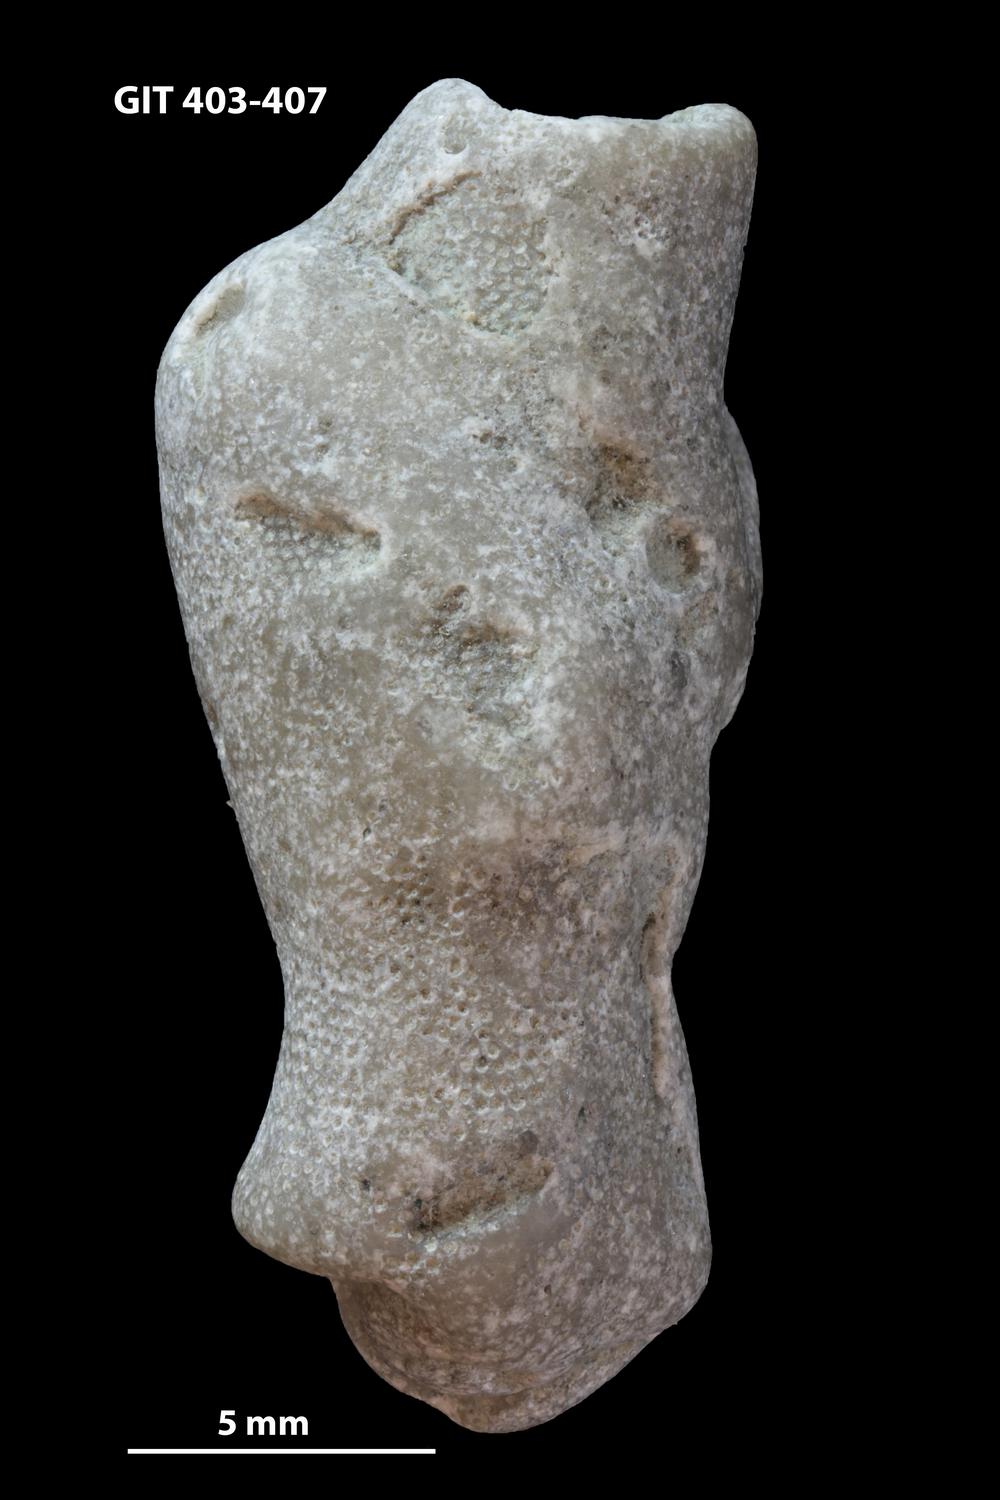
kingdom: Animalia
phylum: Bryozoa
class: Stenolaemata
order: Cystoporida
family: Fistuliporidae
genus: Fistulipora
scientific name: Fistulipora
